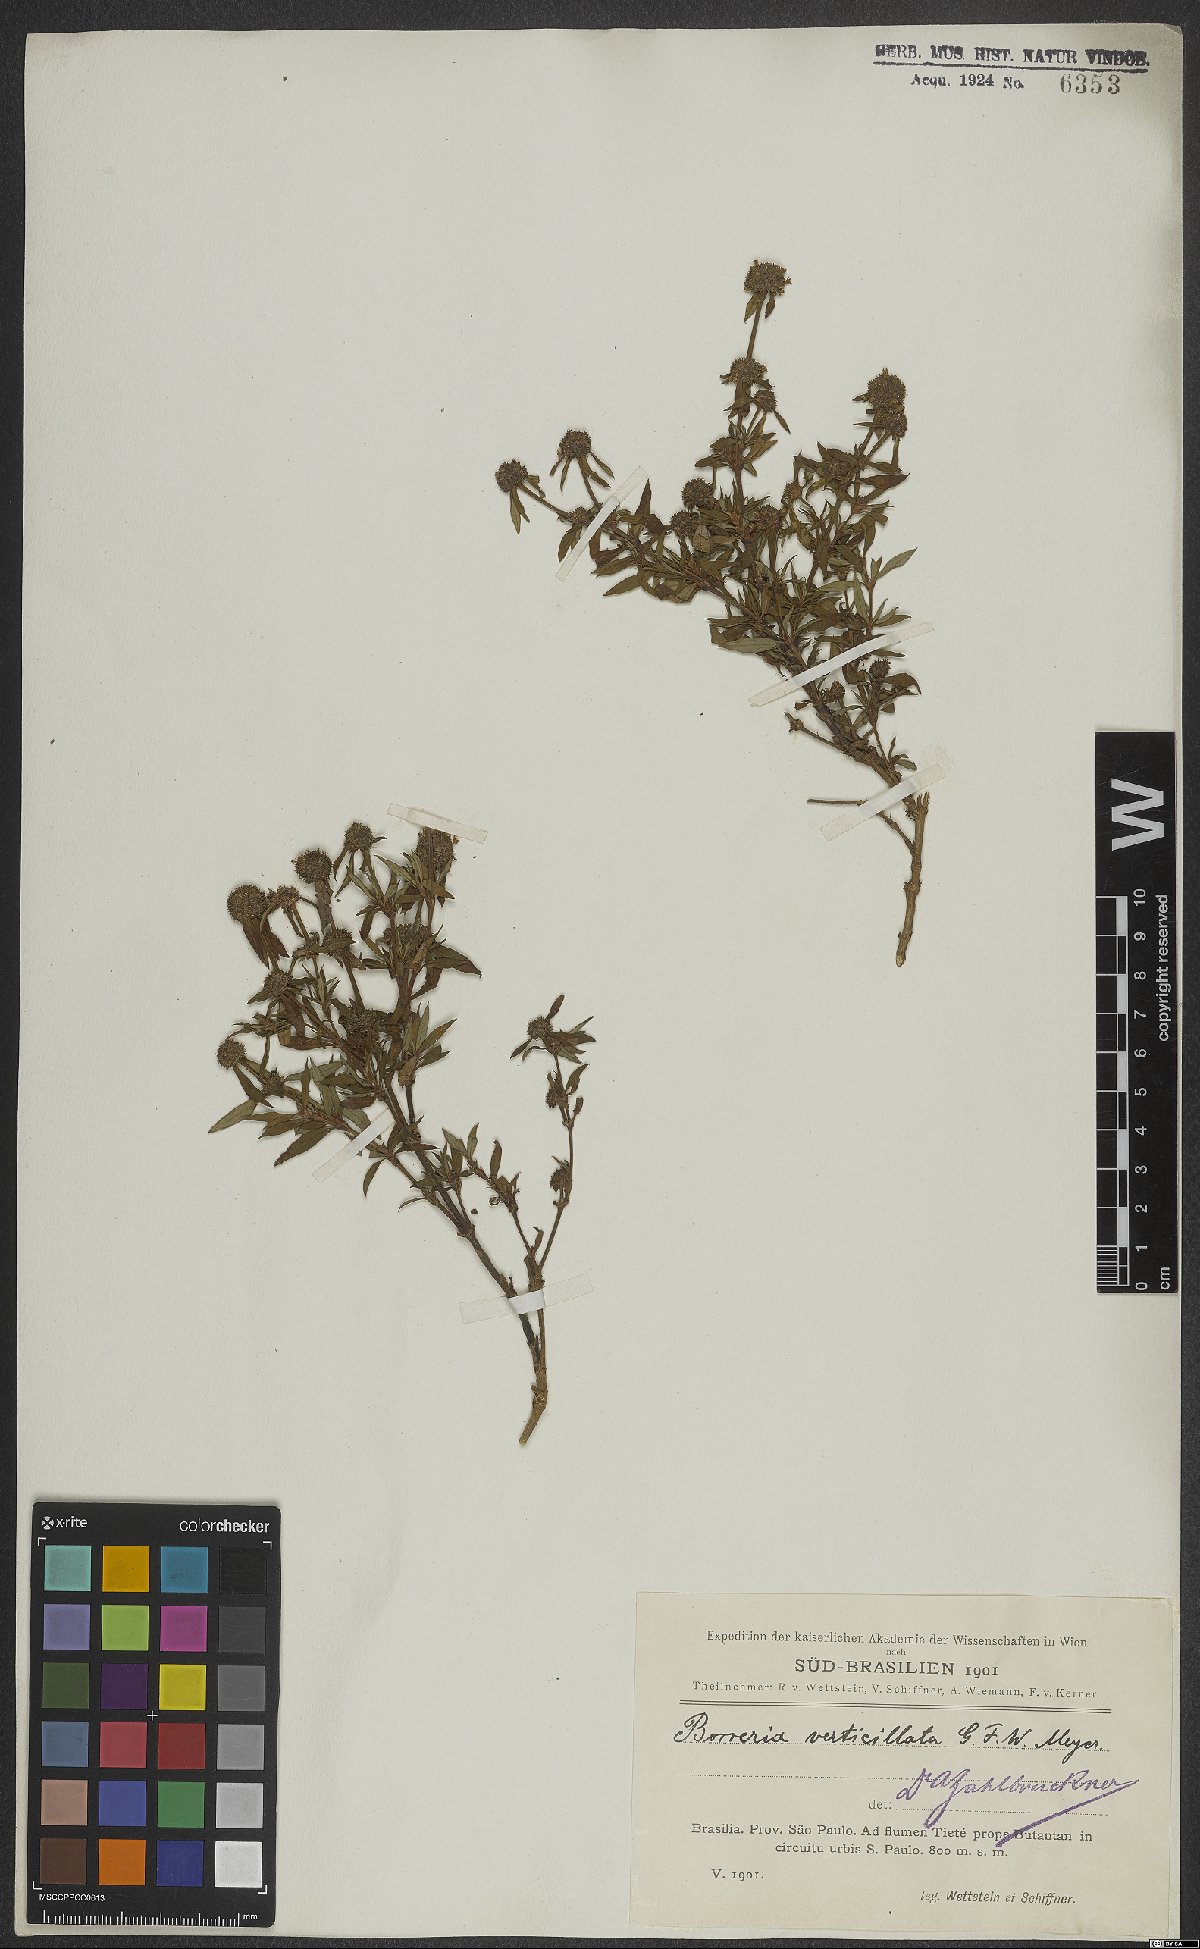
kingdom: Plantae
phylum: Tracheophyta
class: Magnoliopsida
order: Gentianales
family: Rubiaceae
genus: Spermacoce
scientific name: Spermacoce verticillata
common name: Shrubby false buttonweed
